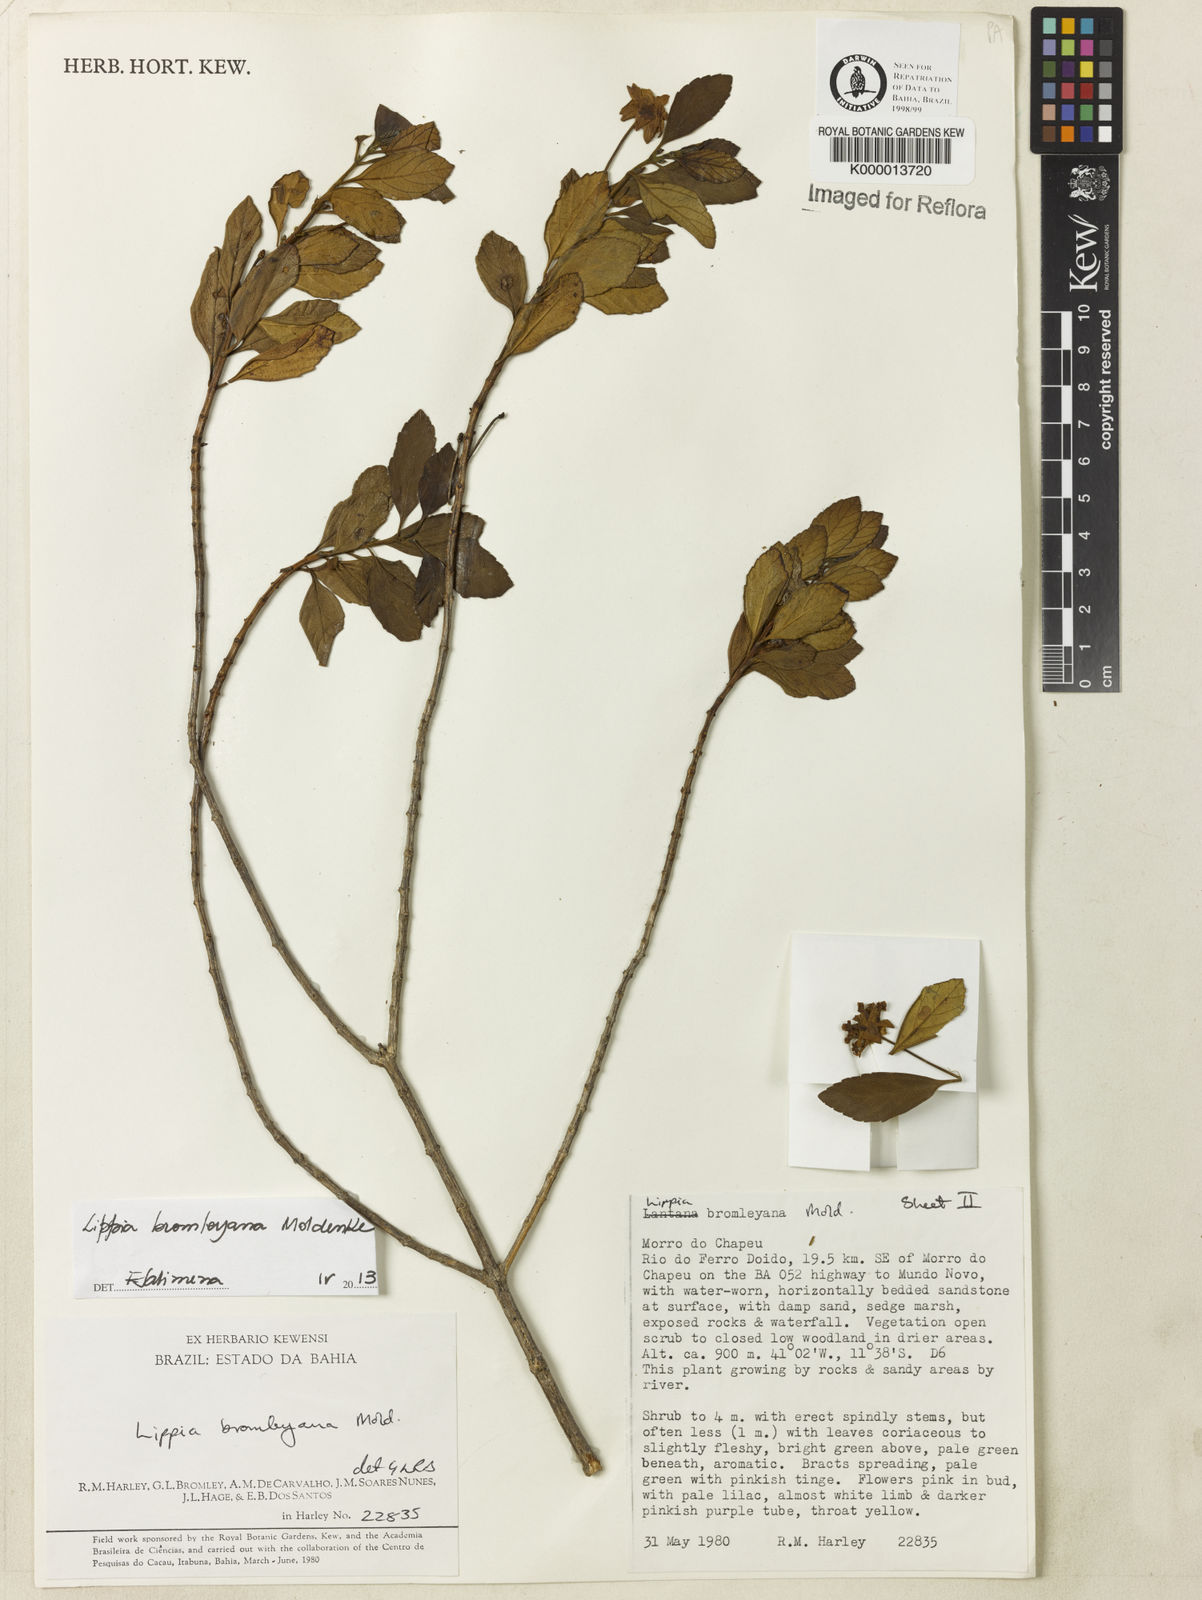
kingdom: Plantae
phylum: Tracheophyta
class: Magnoliopsida
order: Lamiales
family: Verbenaceae
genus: Lippia
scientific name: Lippia bromleyana
